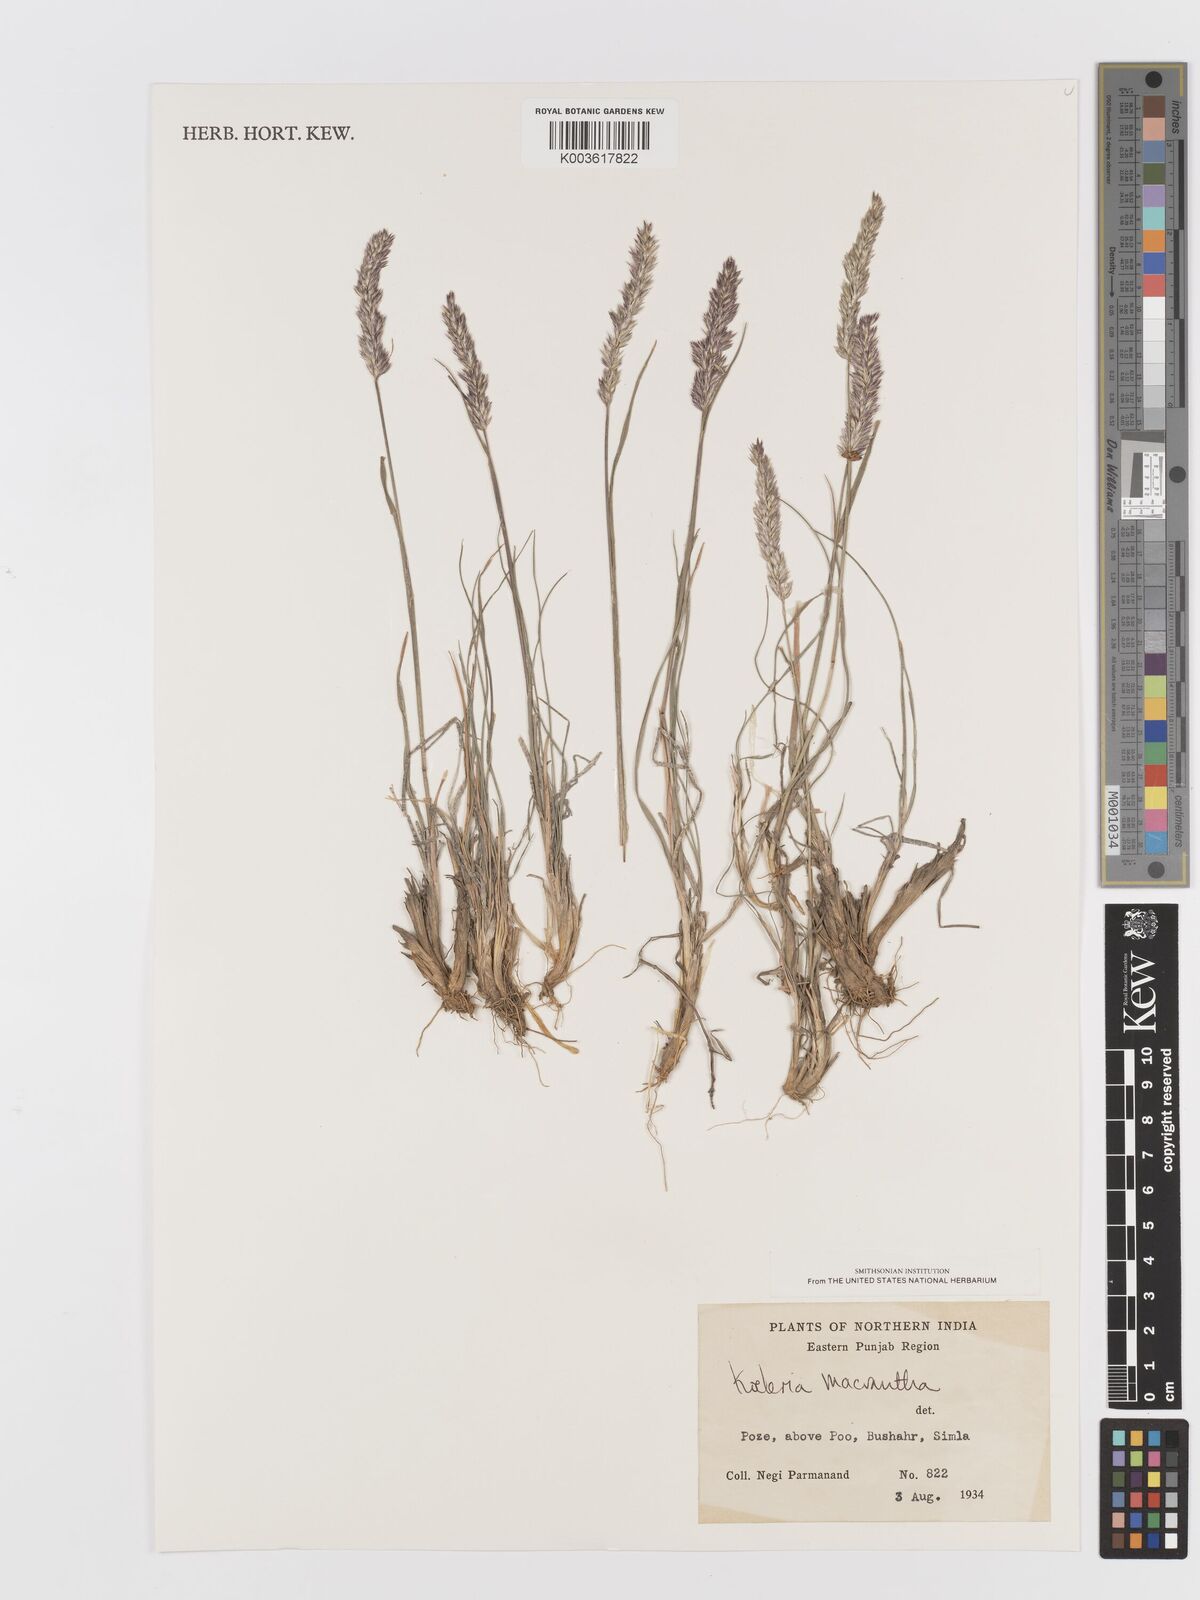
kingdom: Plantae
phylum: Tracheophyta
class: Liliopsida
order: Poales
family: Poaceae
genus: Koeleria
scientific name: Koeleria macrantha
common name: Crested hair-grass
